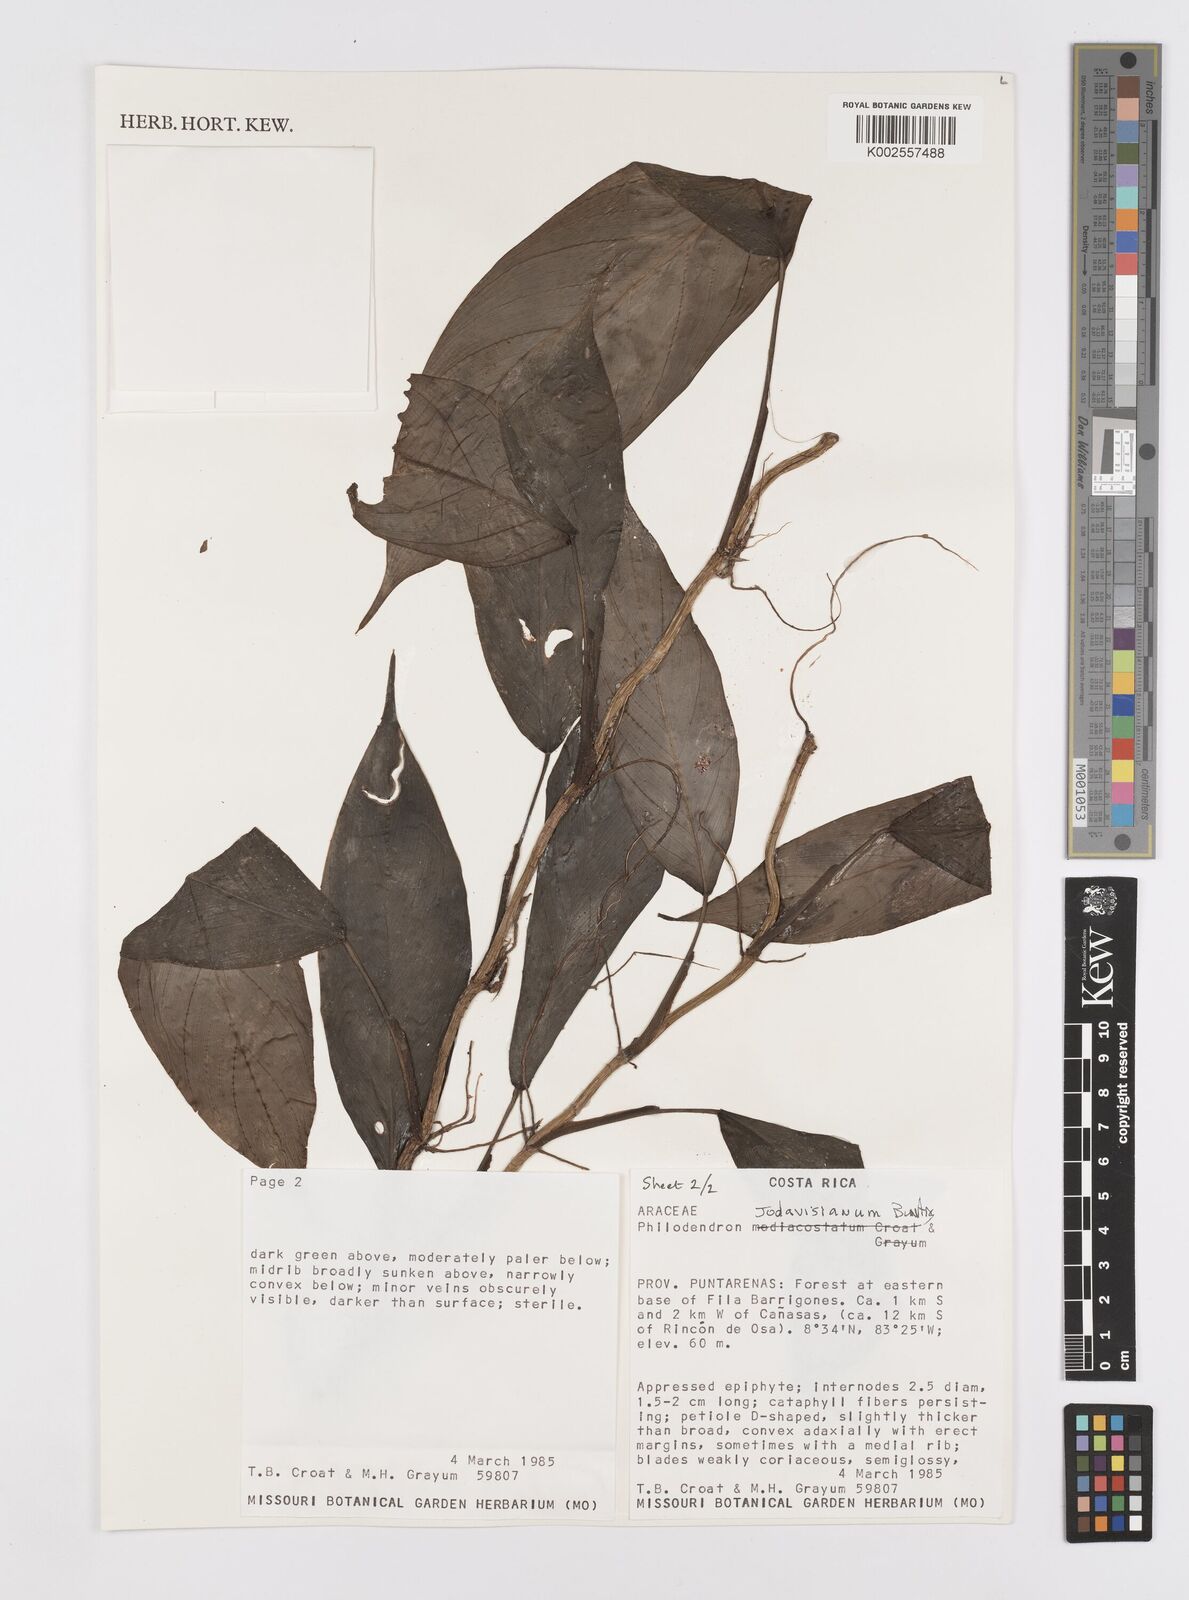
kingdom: Plantae
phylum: Tracheophyta
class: Liliopsida
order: Alismatales
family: Araceae
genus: Philodendron
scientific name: Philodendron jodavisianum
